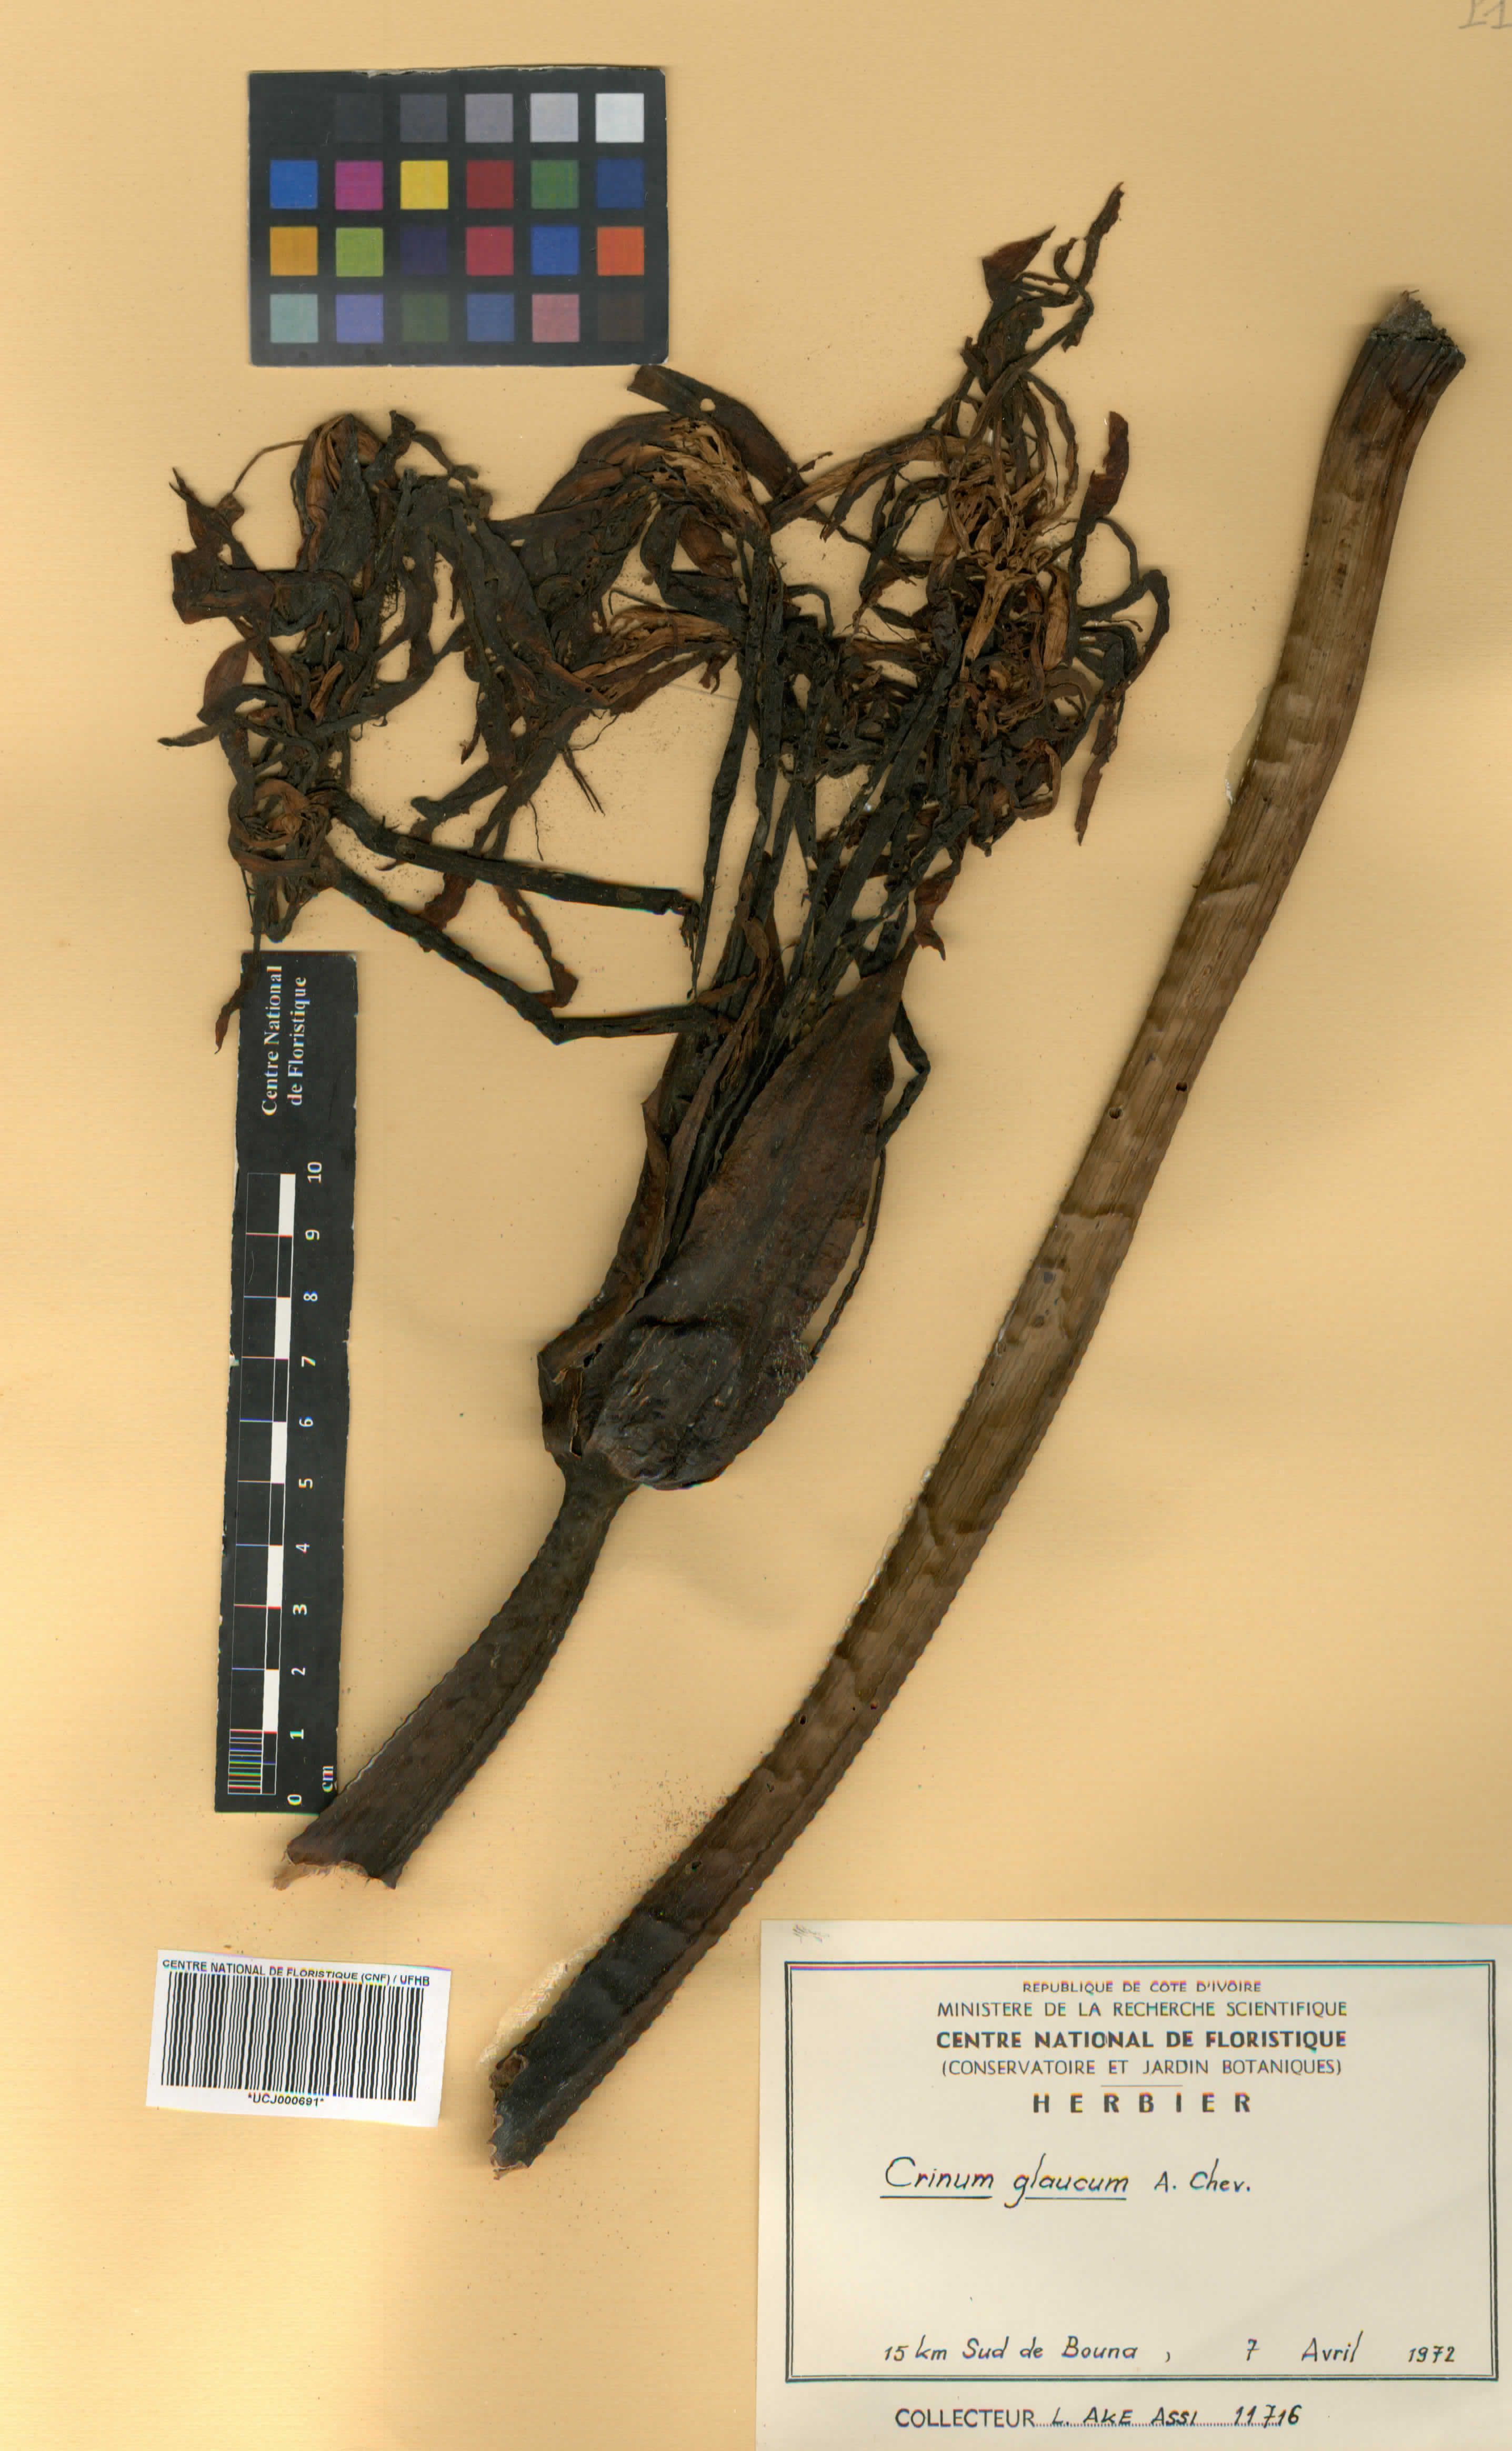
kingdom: Plantae
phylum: Tracheophyta
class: Liliopsida
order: Asparagales
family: Amaryllidaceae
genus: Crinum
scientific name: Crinum glaucum
